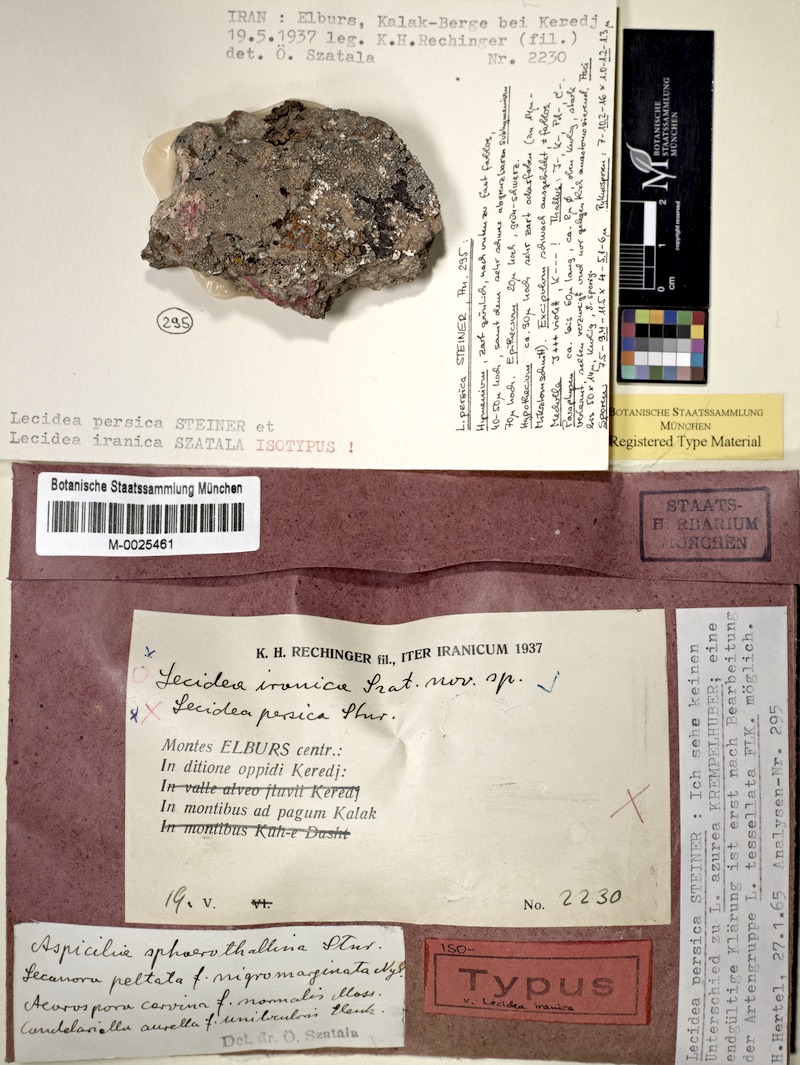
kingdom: Fungi
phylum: Ascomycota
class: Lecanoromycetes
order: Lecideales
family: Lecideaceae
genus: Lecidea
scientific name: Lecidea
